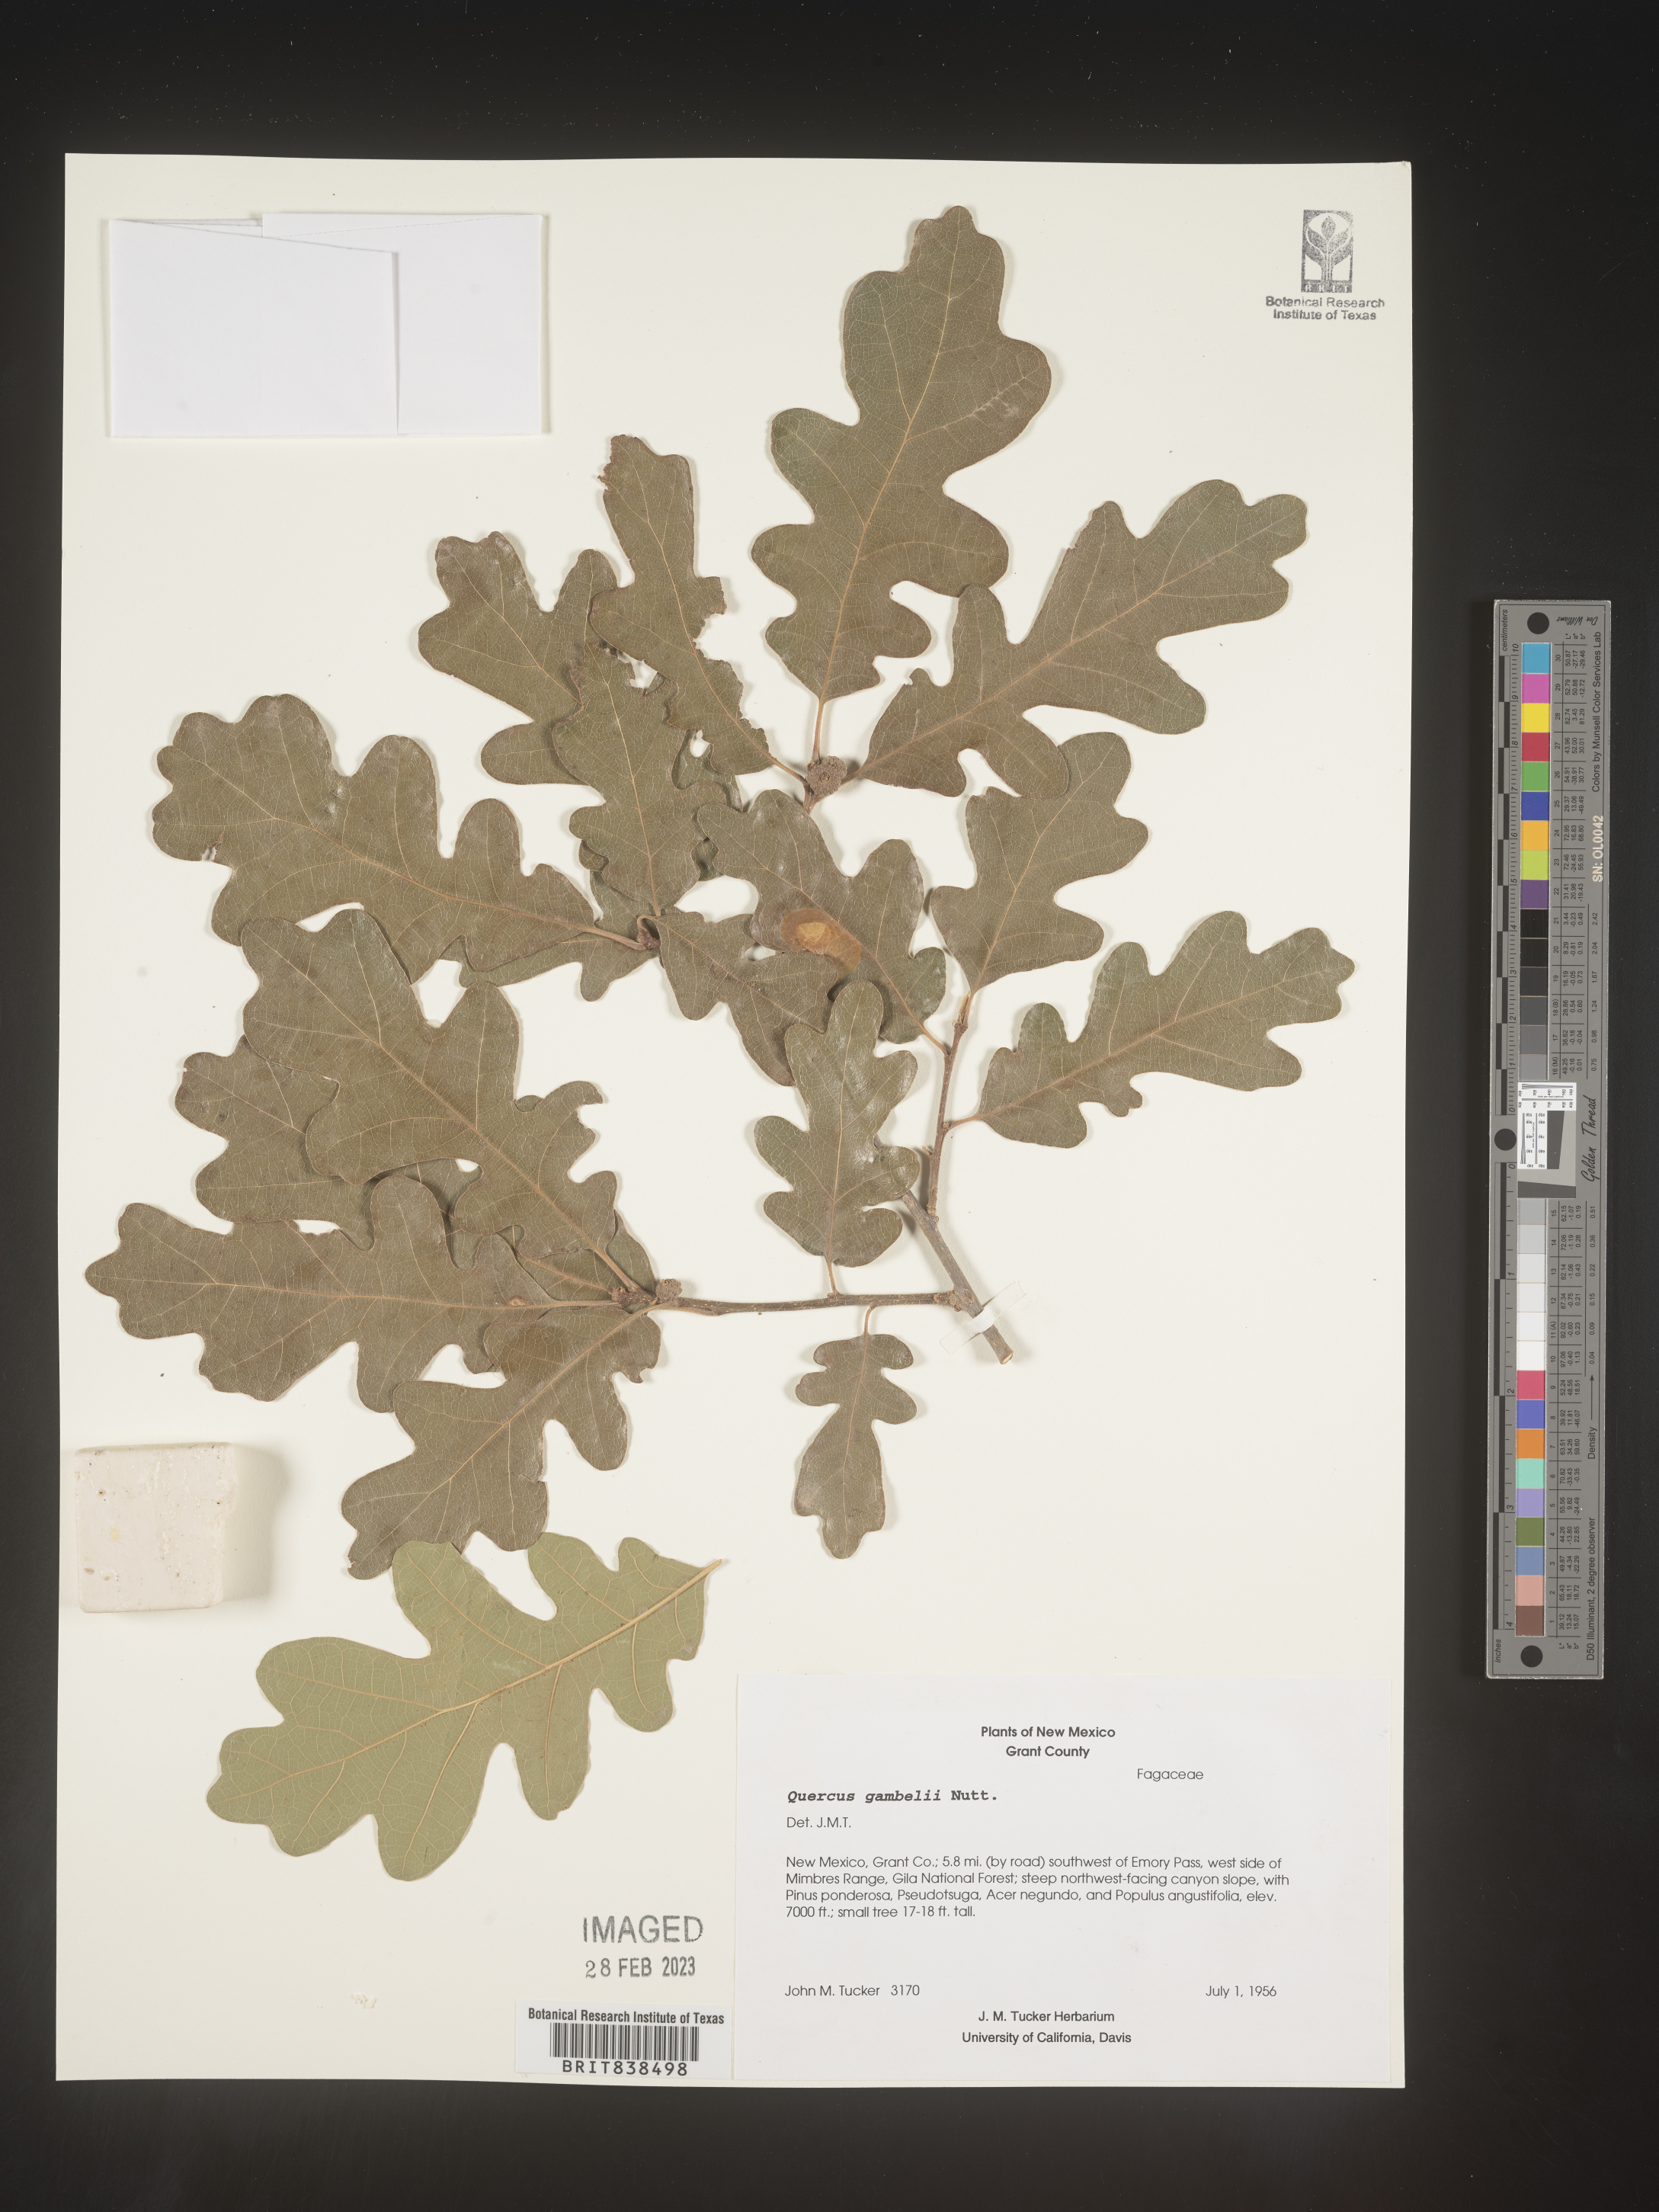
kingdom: Plantae
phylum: Tracheophyta
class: Magnoliopsida
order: Fagales
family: Fagaceae
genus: Quercus
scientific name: Quercus gambelii
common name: Gambel oak
